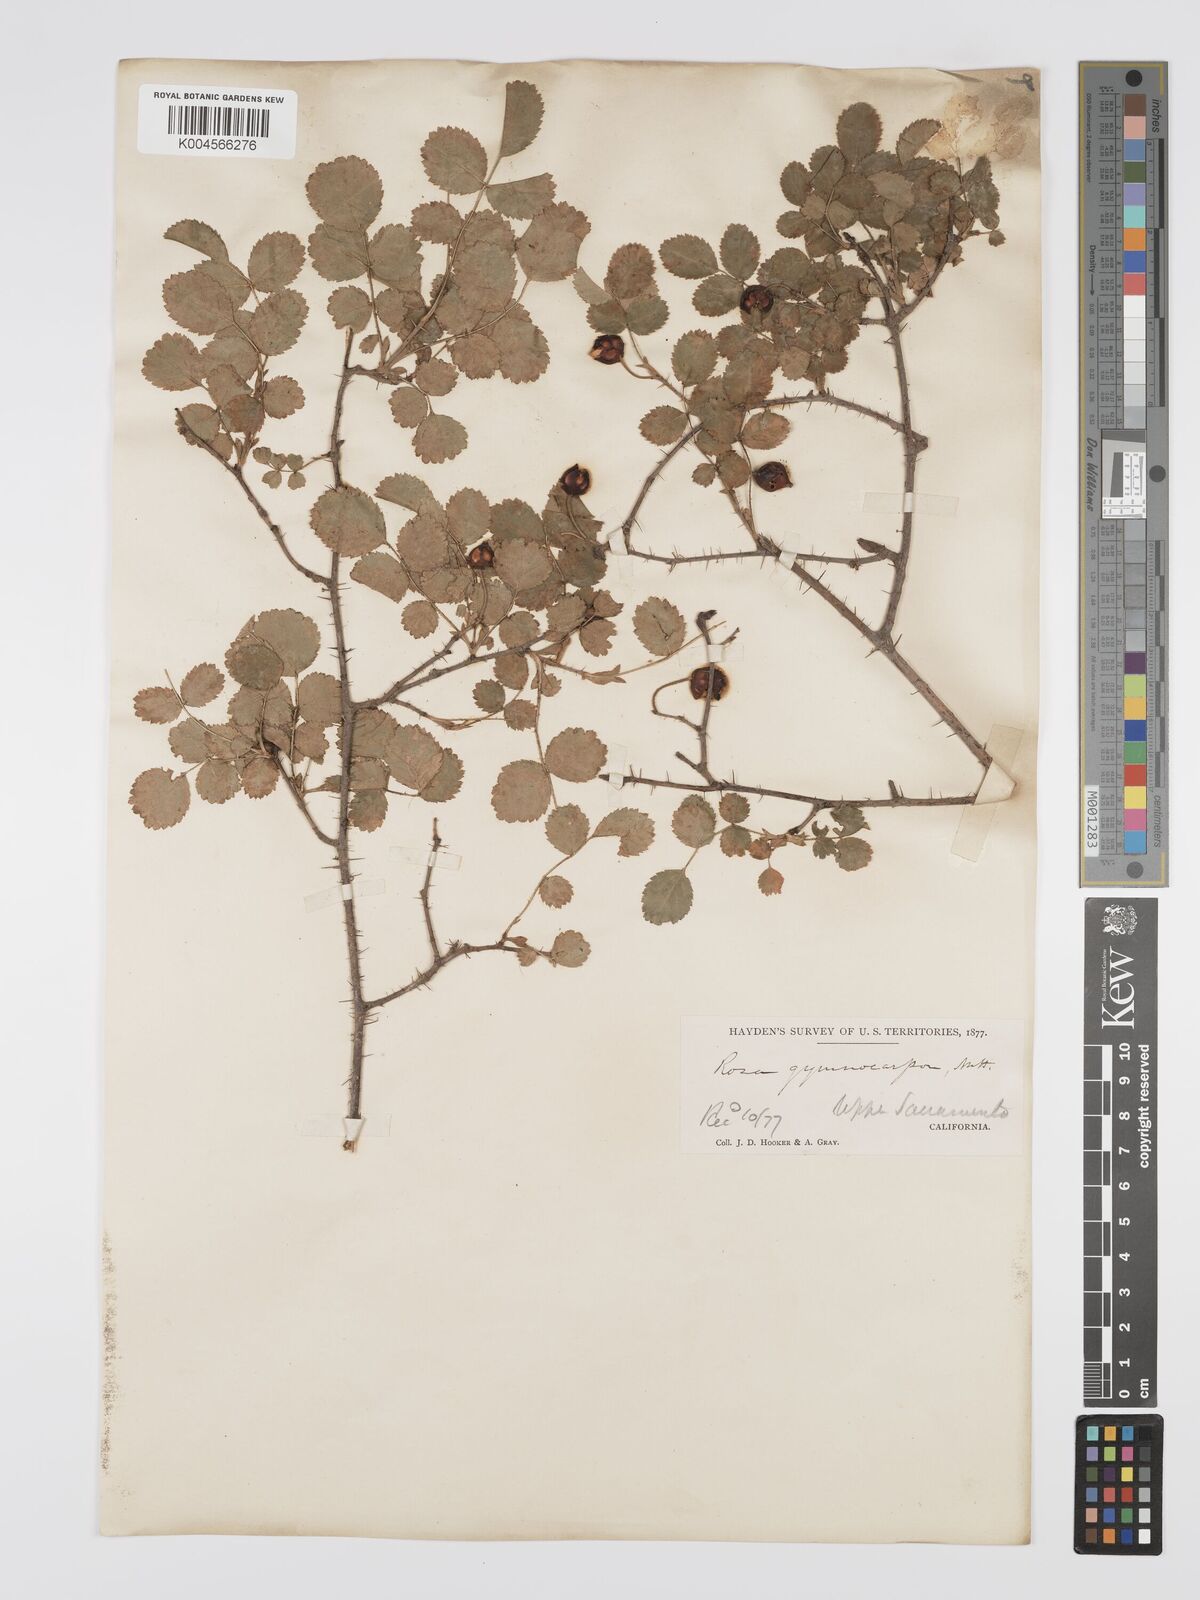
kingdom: Plantae
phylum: Tracheophyta
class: Magnoliopsida
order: Rosales
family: Rosaceae
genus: Rosa
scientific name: Rosa gymnocarpa
